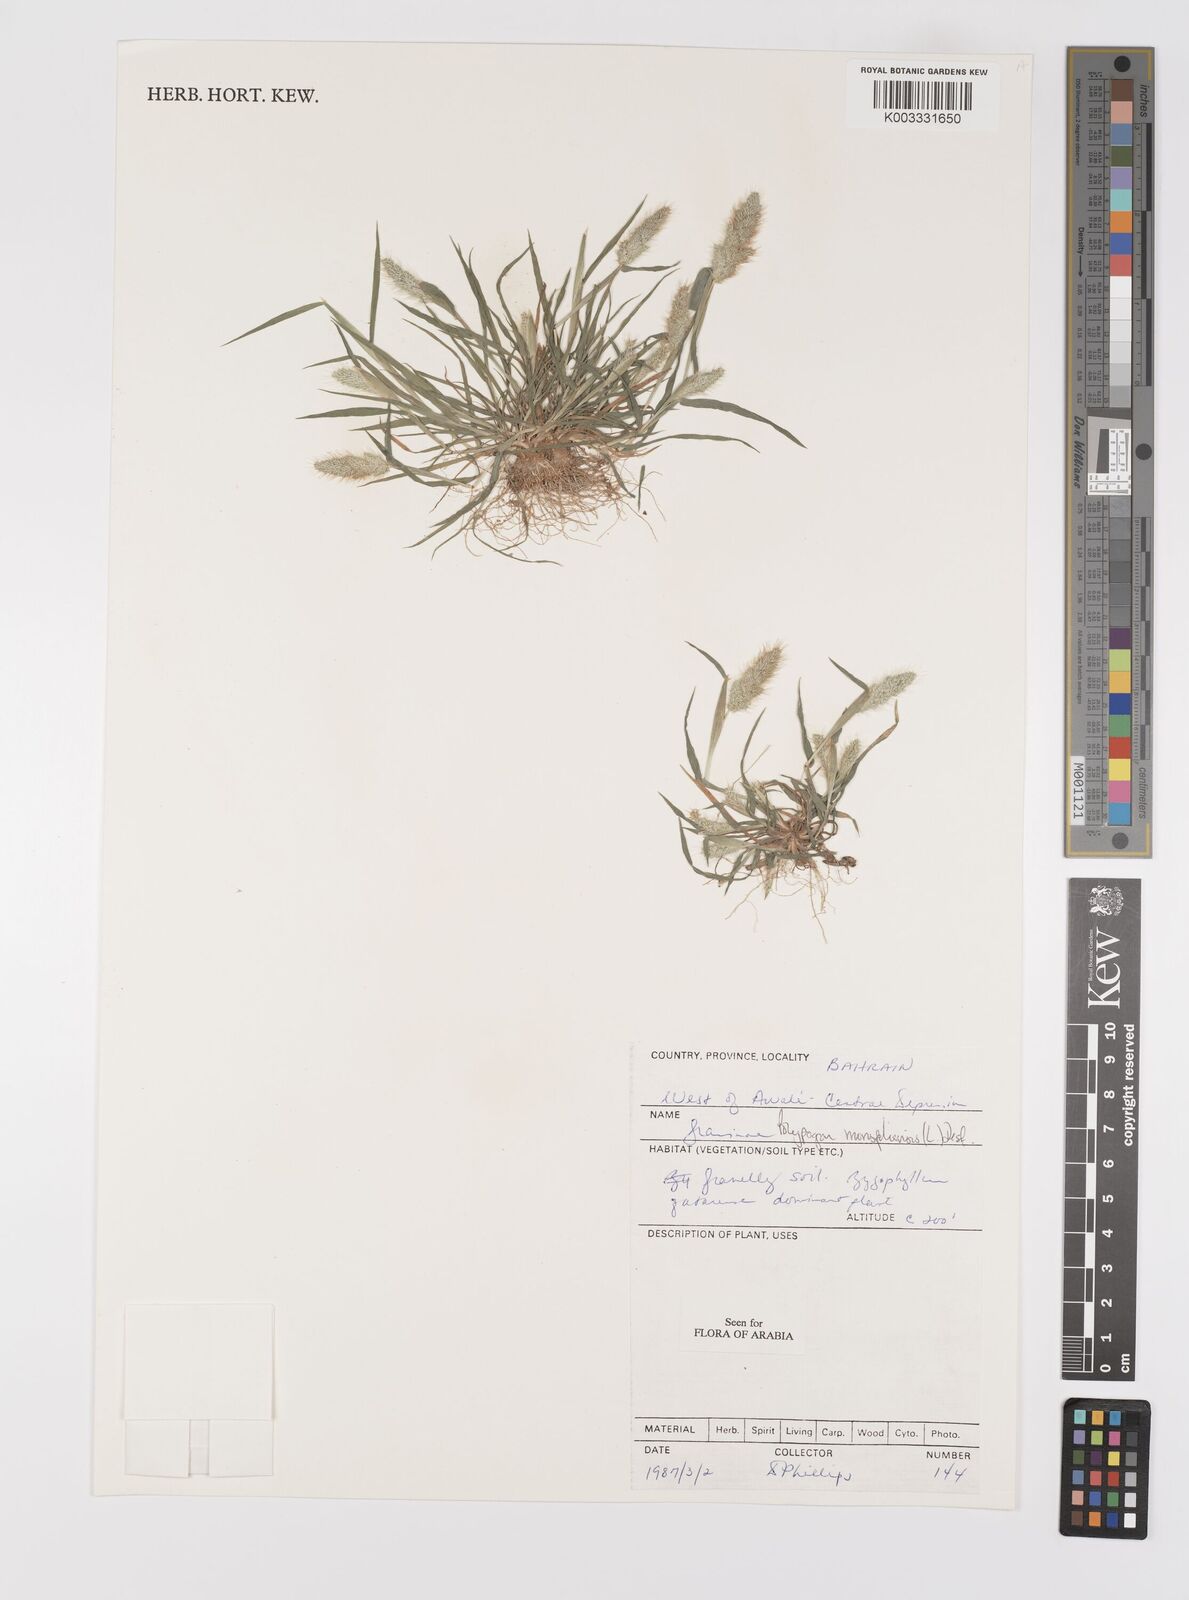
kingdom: Plantae
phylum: Tracheophyta
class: Liliopsida
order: Poales
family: Poaceae
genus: Polypogon
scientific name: Polypogon monspeliensis
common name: Annual rabbitsfoot grass
